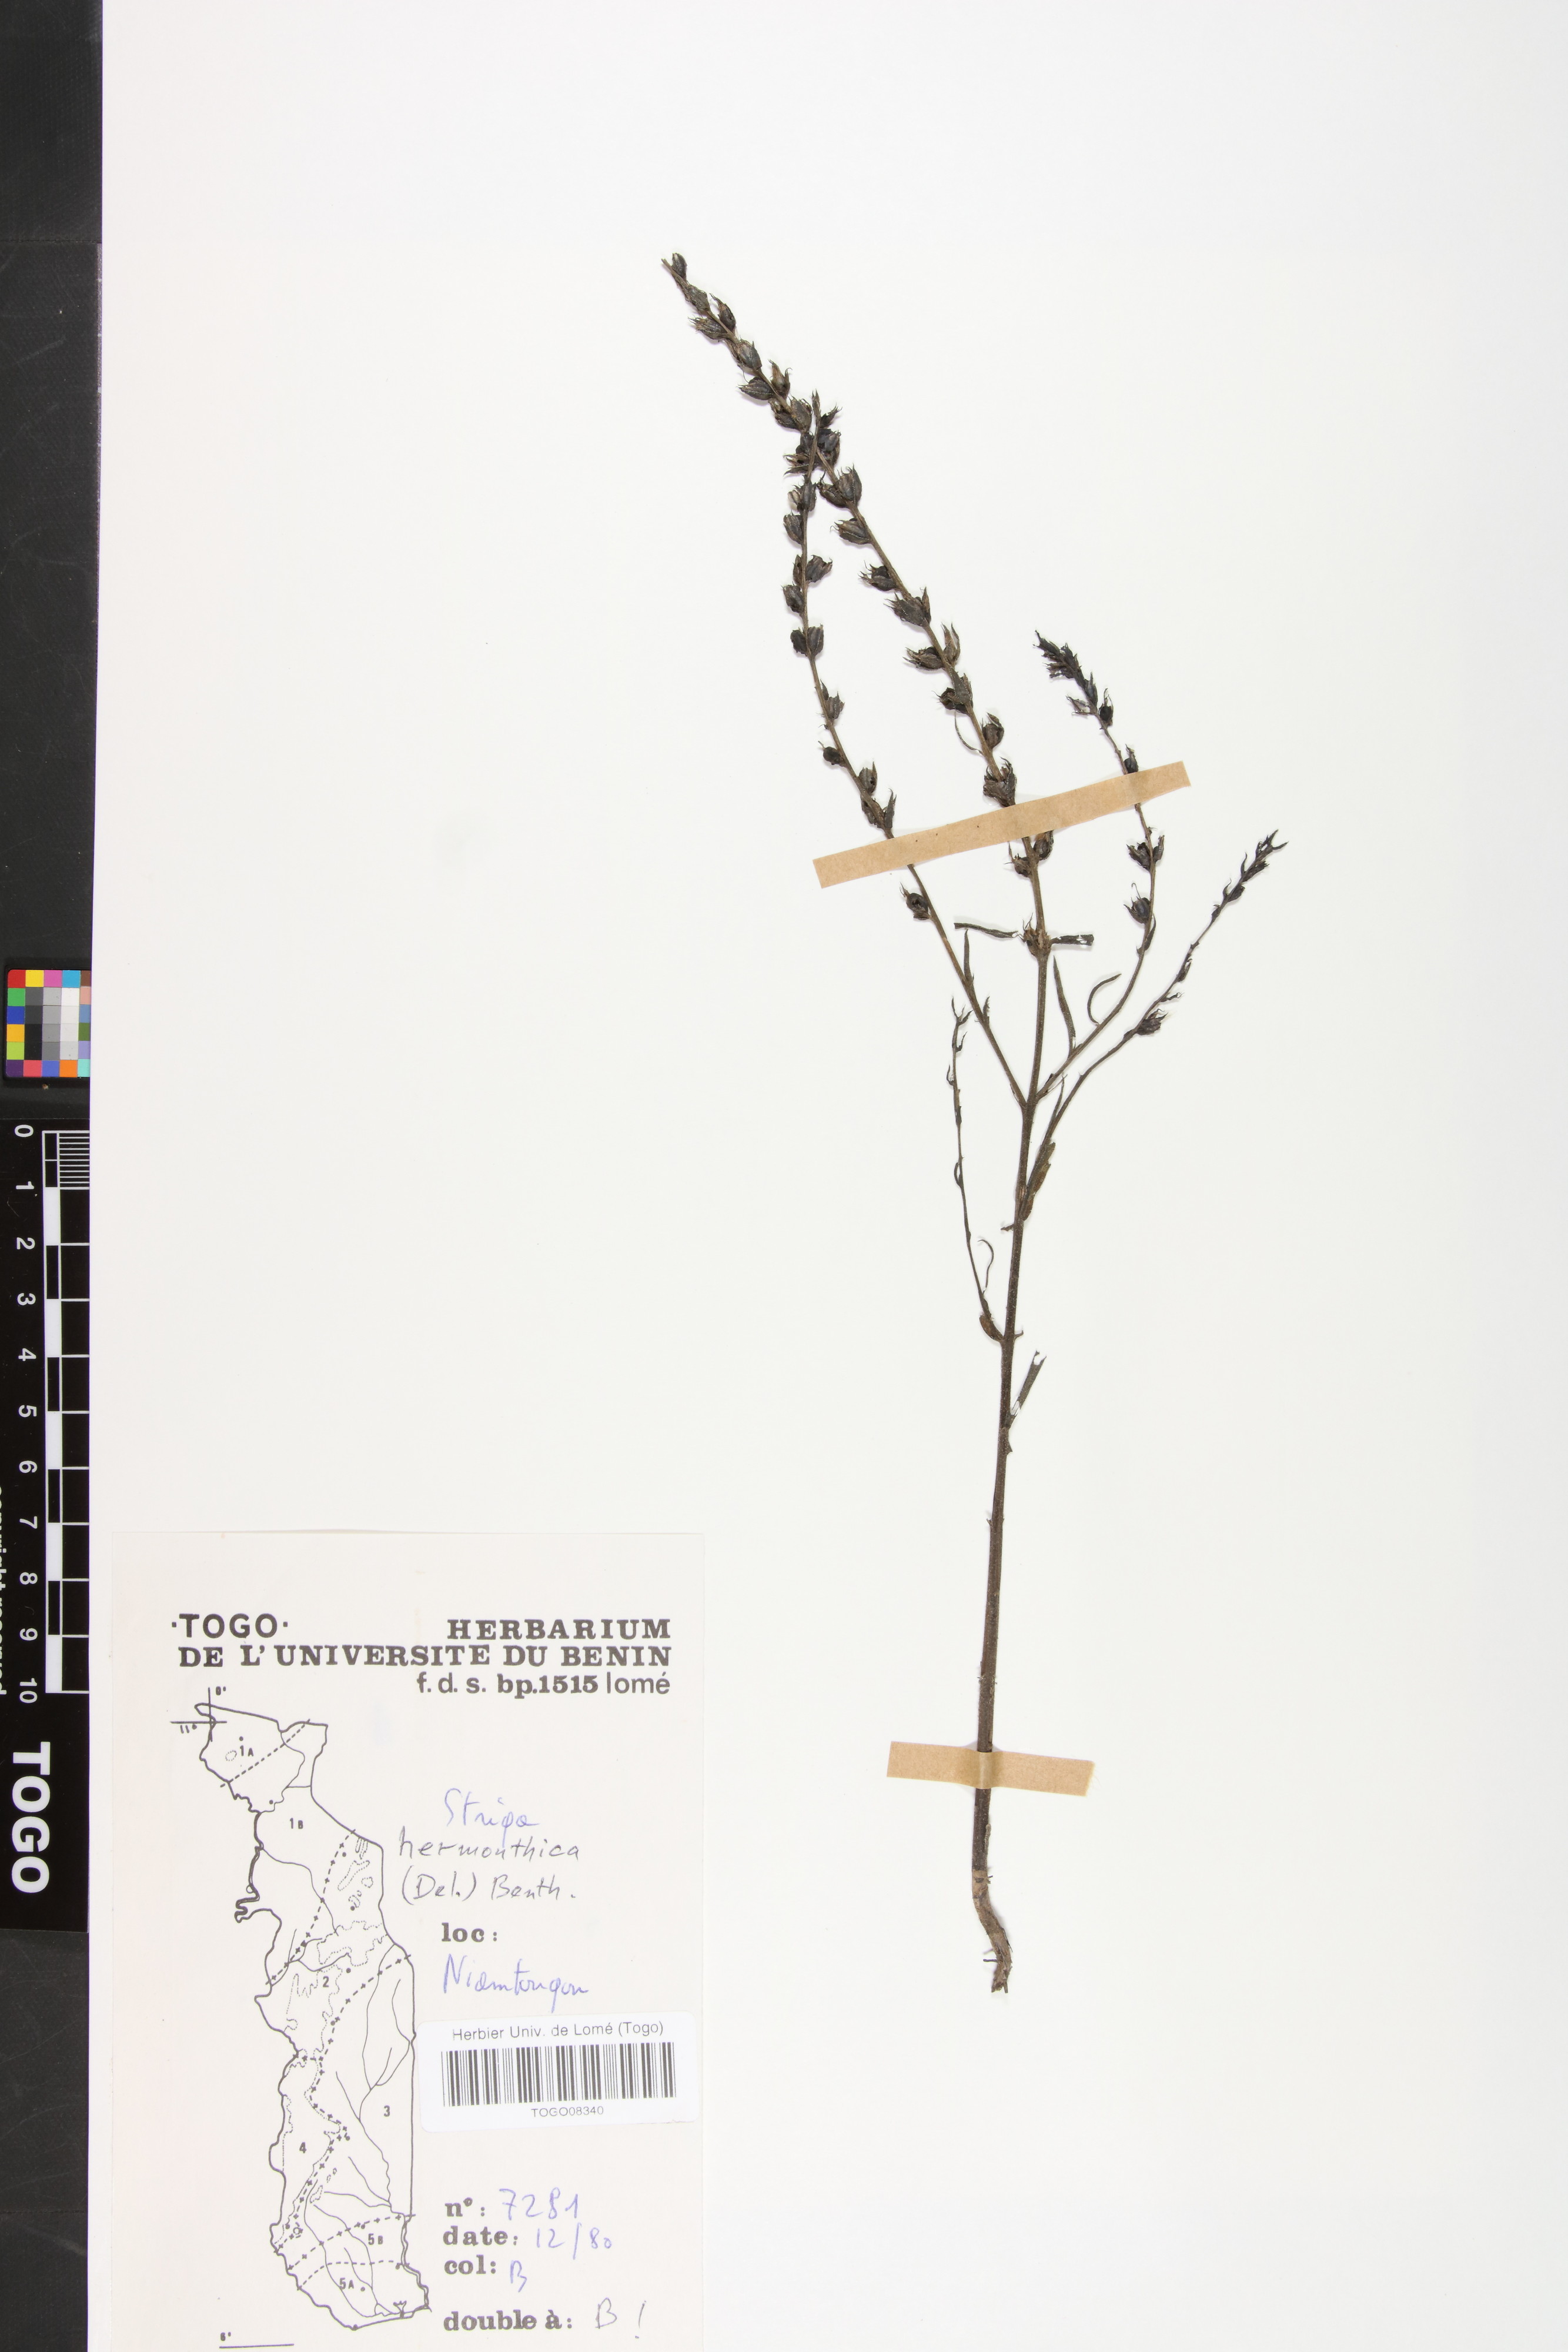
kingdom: Plantae
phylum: Tracheophyta
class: Magnoliopsida
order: Lamiales
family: Orobanchaceae
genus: Striga
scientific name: Striga hermonthica
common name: Purple witchweed
